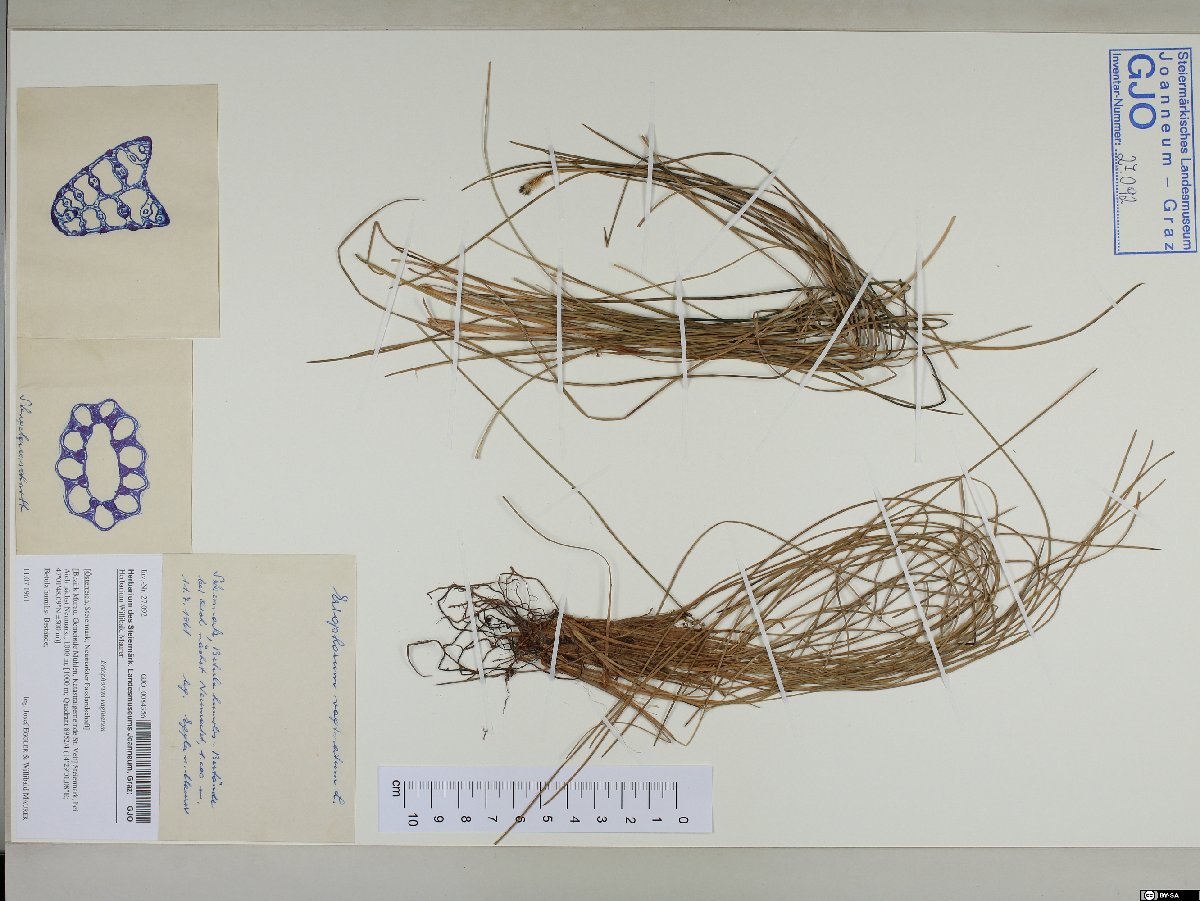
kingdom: Plantae
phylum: Tracheophyta
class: Liliopsida
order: Poales
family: Cyperaceae
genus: Eriophorum
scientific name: Eriophorum vaginatum
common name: Hare's-tail cottongrass
